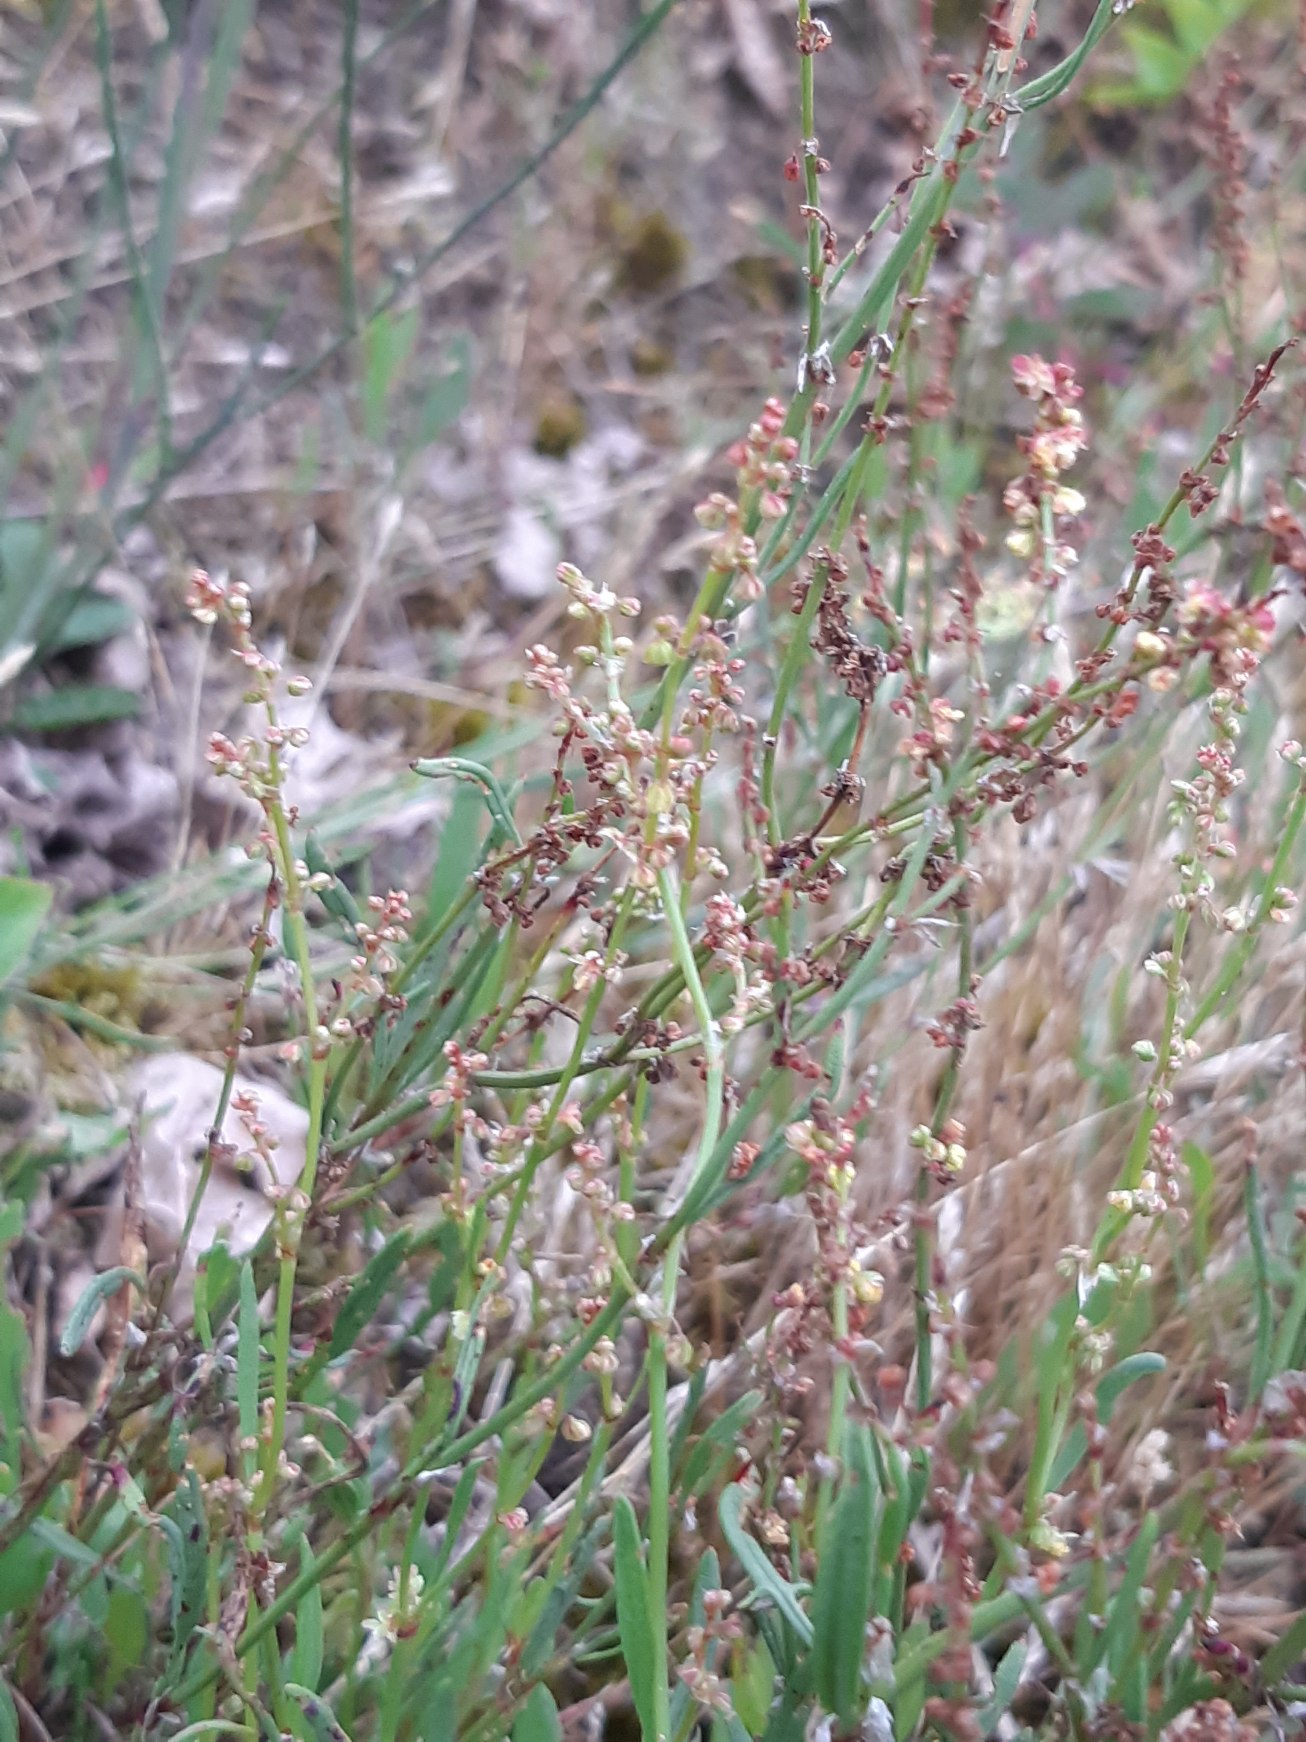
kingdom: Plantae
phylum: Tracheophyta
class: Magnoliopsida
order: Caryophyllales
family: Polygonaceae
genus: Rumex
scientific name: Rumex acetosella
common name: Rødknæ
